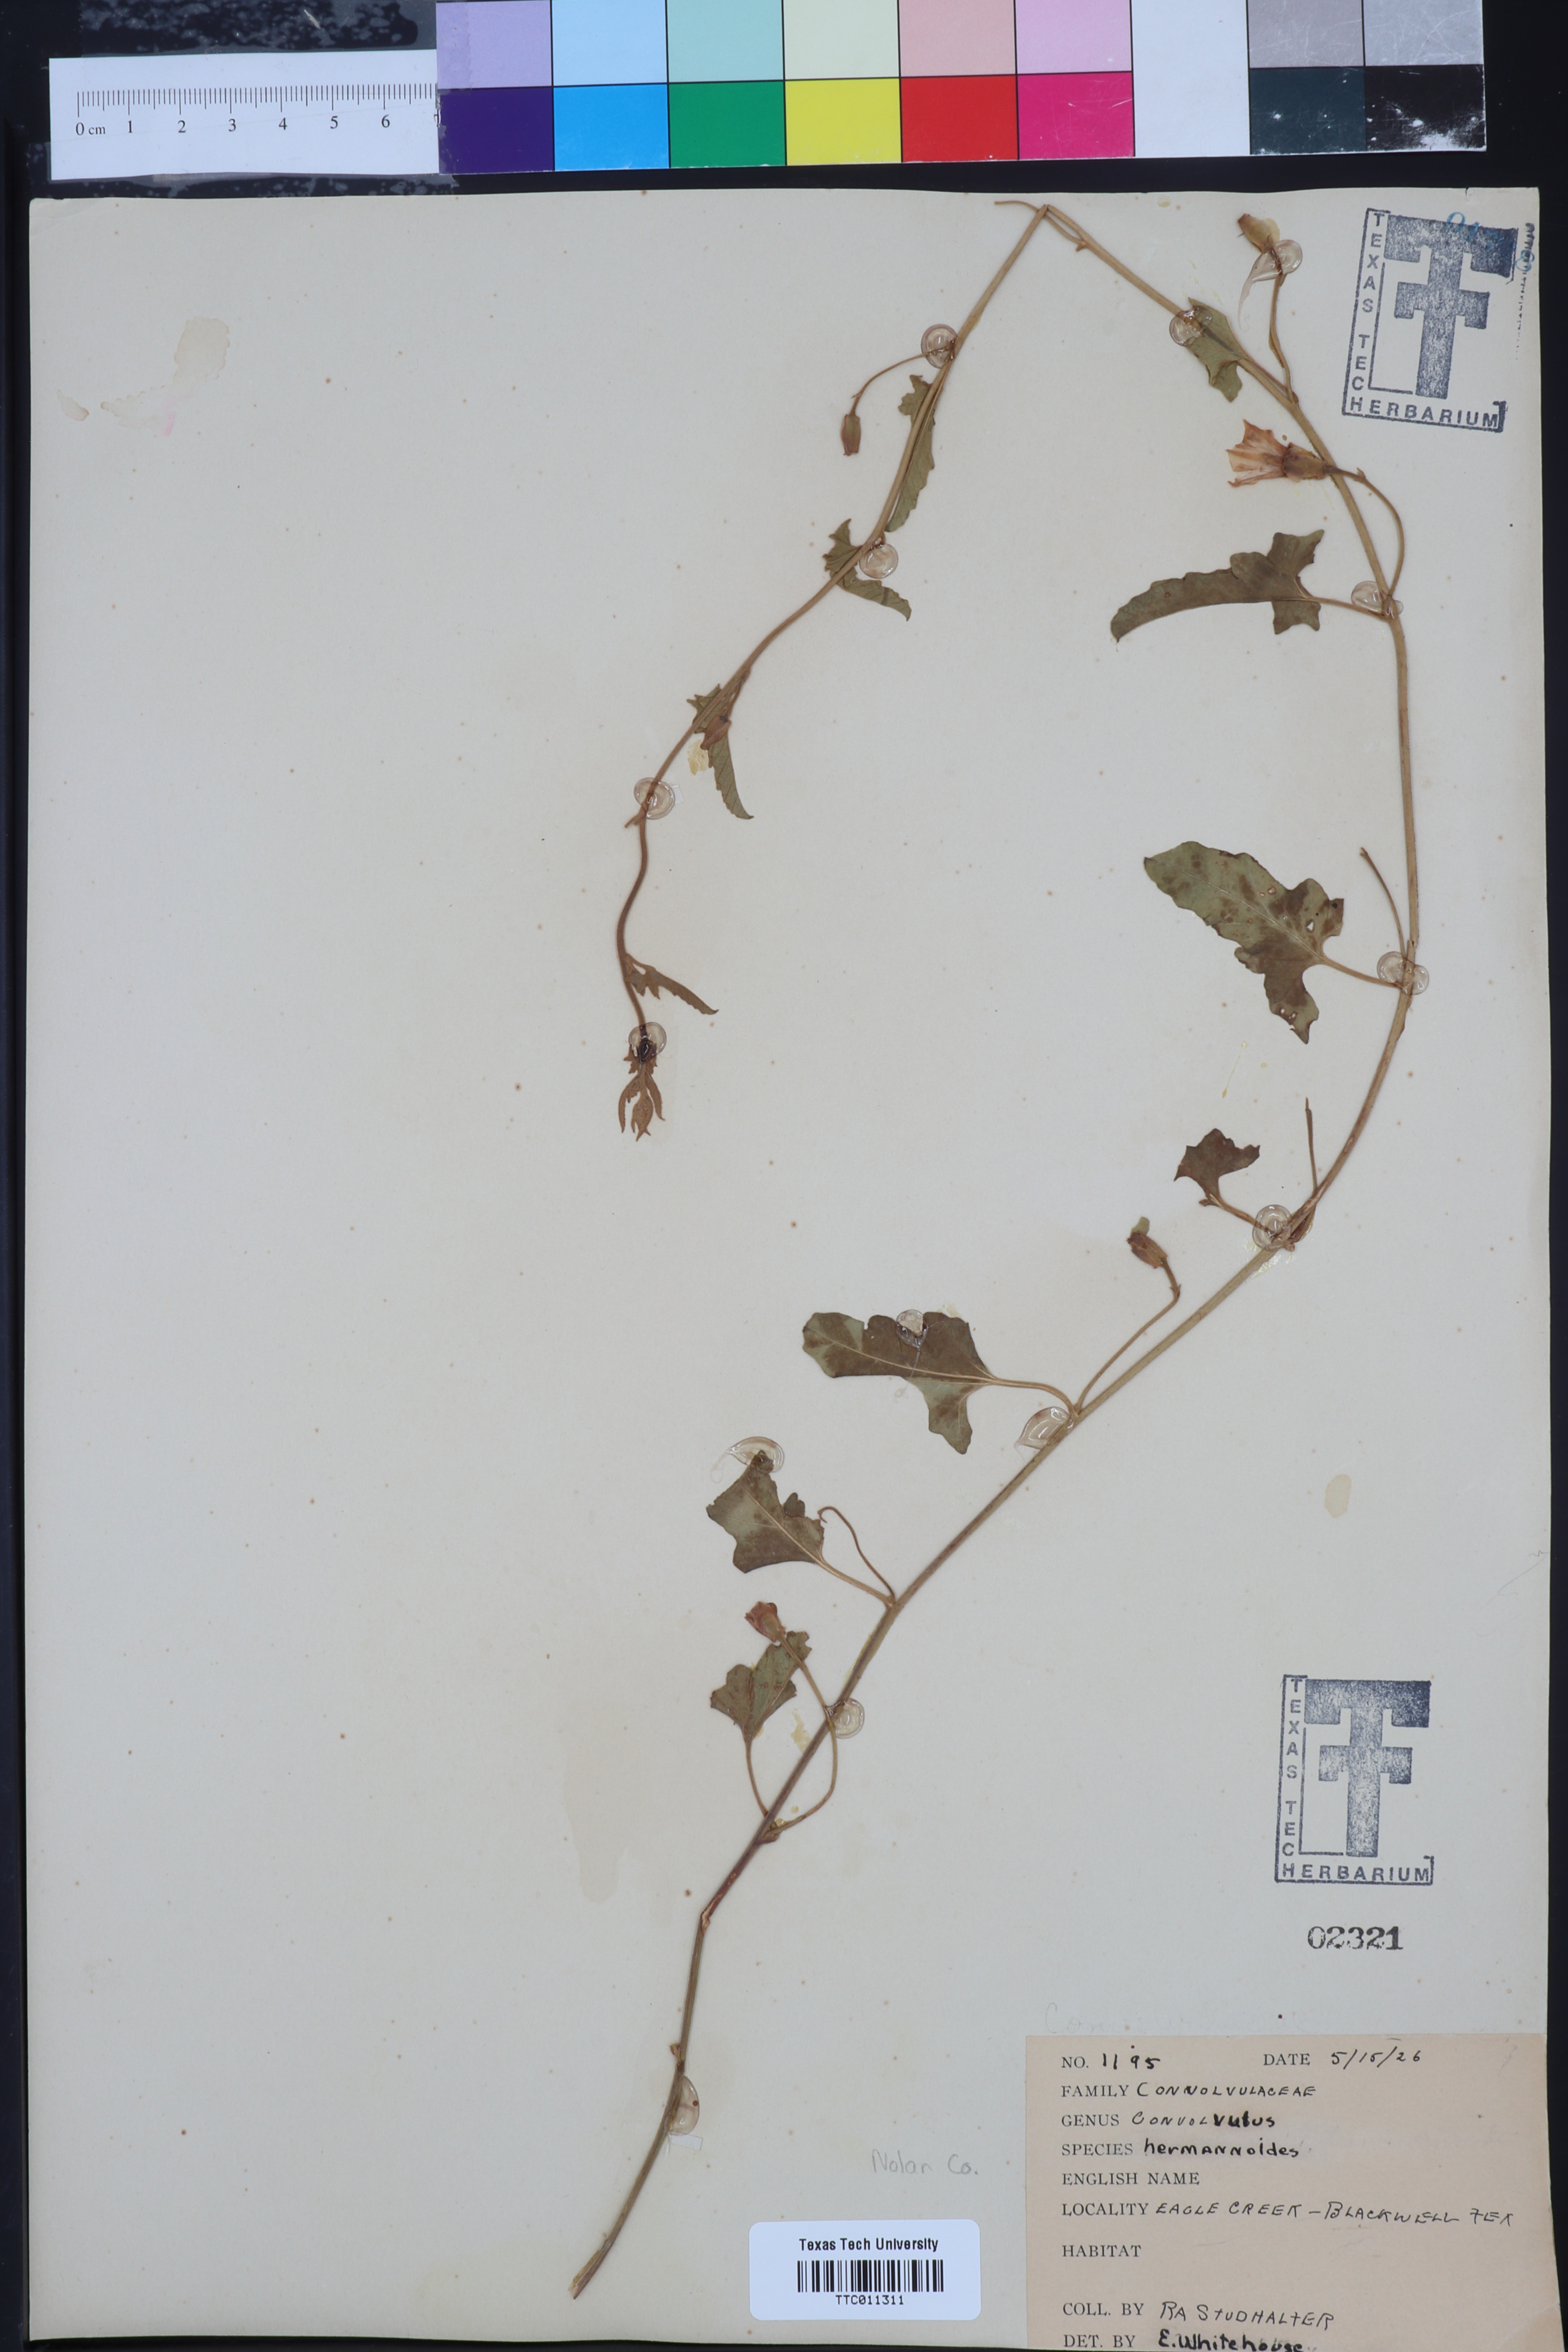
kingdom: Plantae
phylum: Tracheophyta
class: Magnoliopsida
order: Solanales
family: Convolvulaceae
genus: Convolvulus
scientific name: Convolvulus equitans
